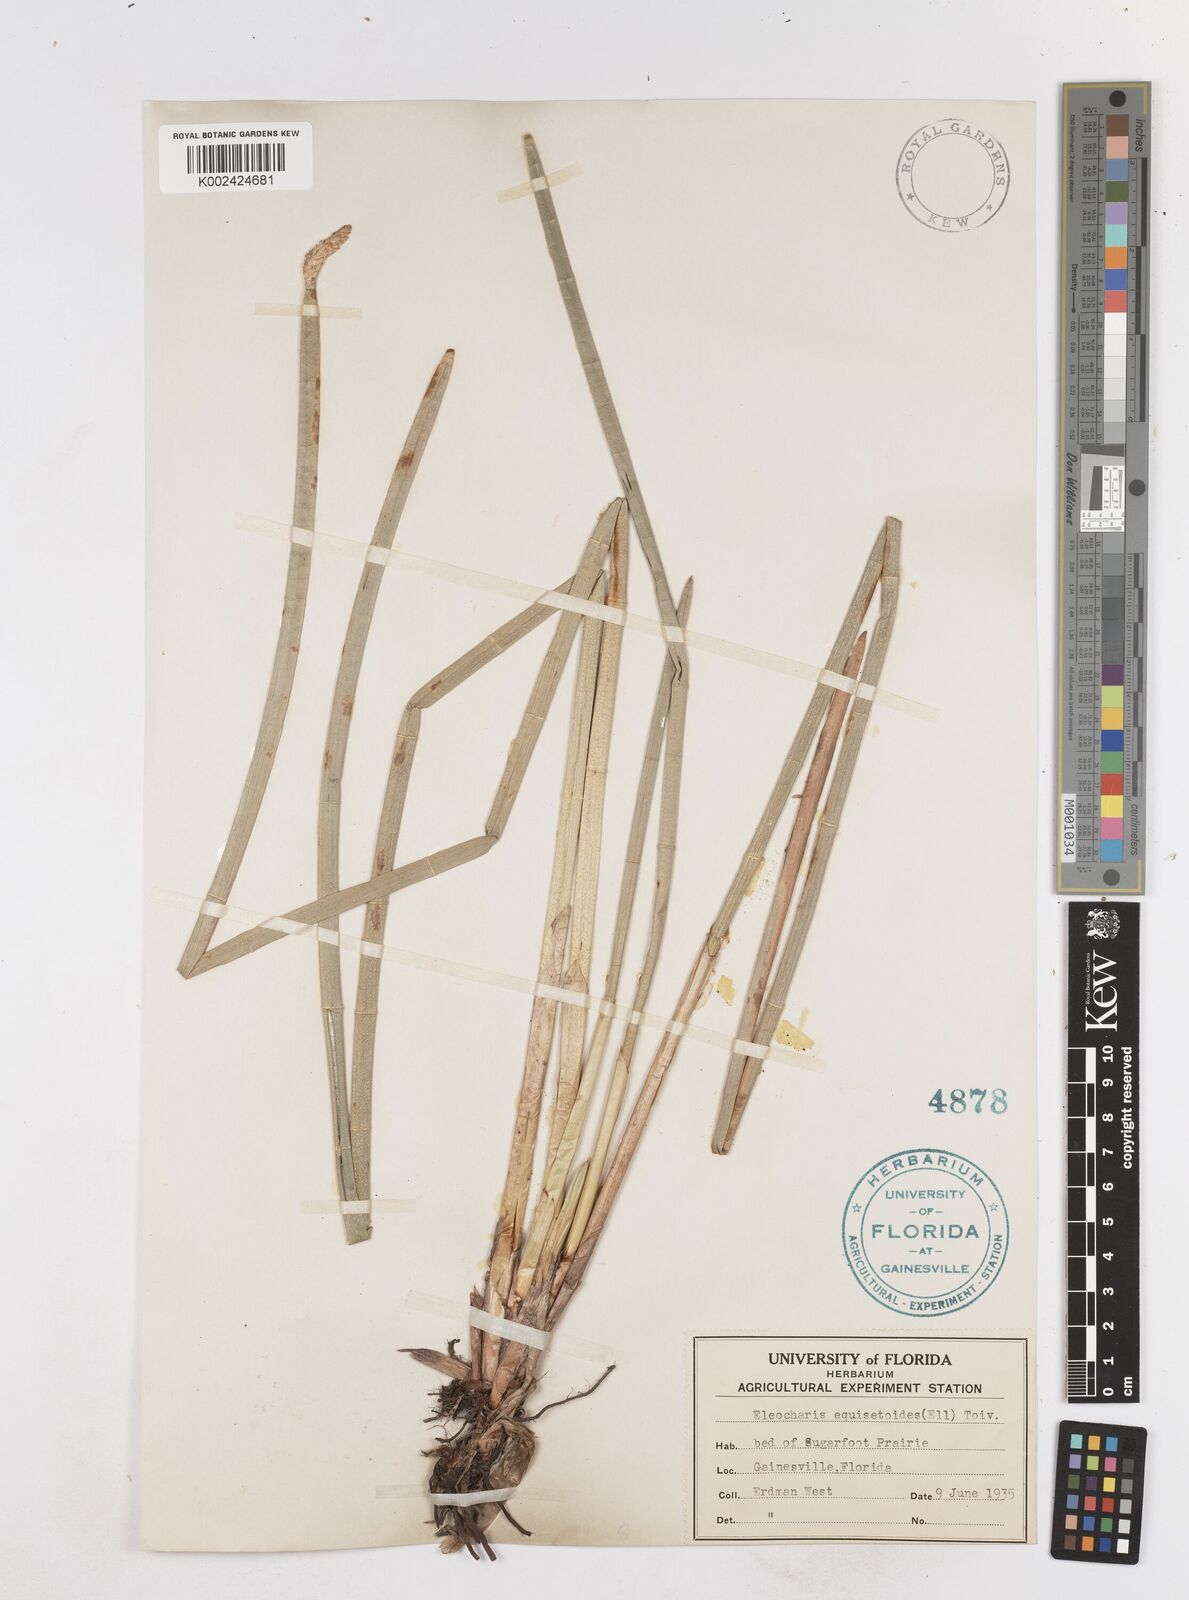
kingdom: Plantae
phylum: Tracheophyta
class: Liliopsida
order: Poales
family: Cyperaceae
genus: Eleocharis
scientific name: Eleocharis equisetoides
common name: Horsetail spike-rush
